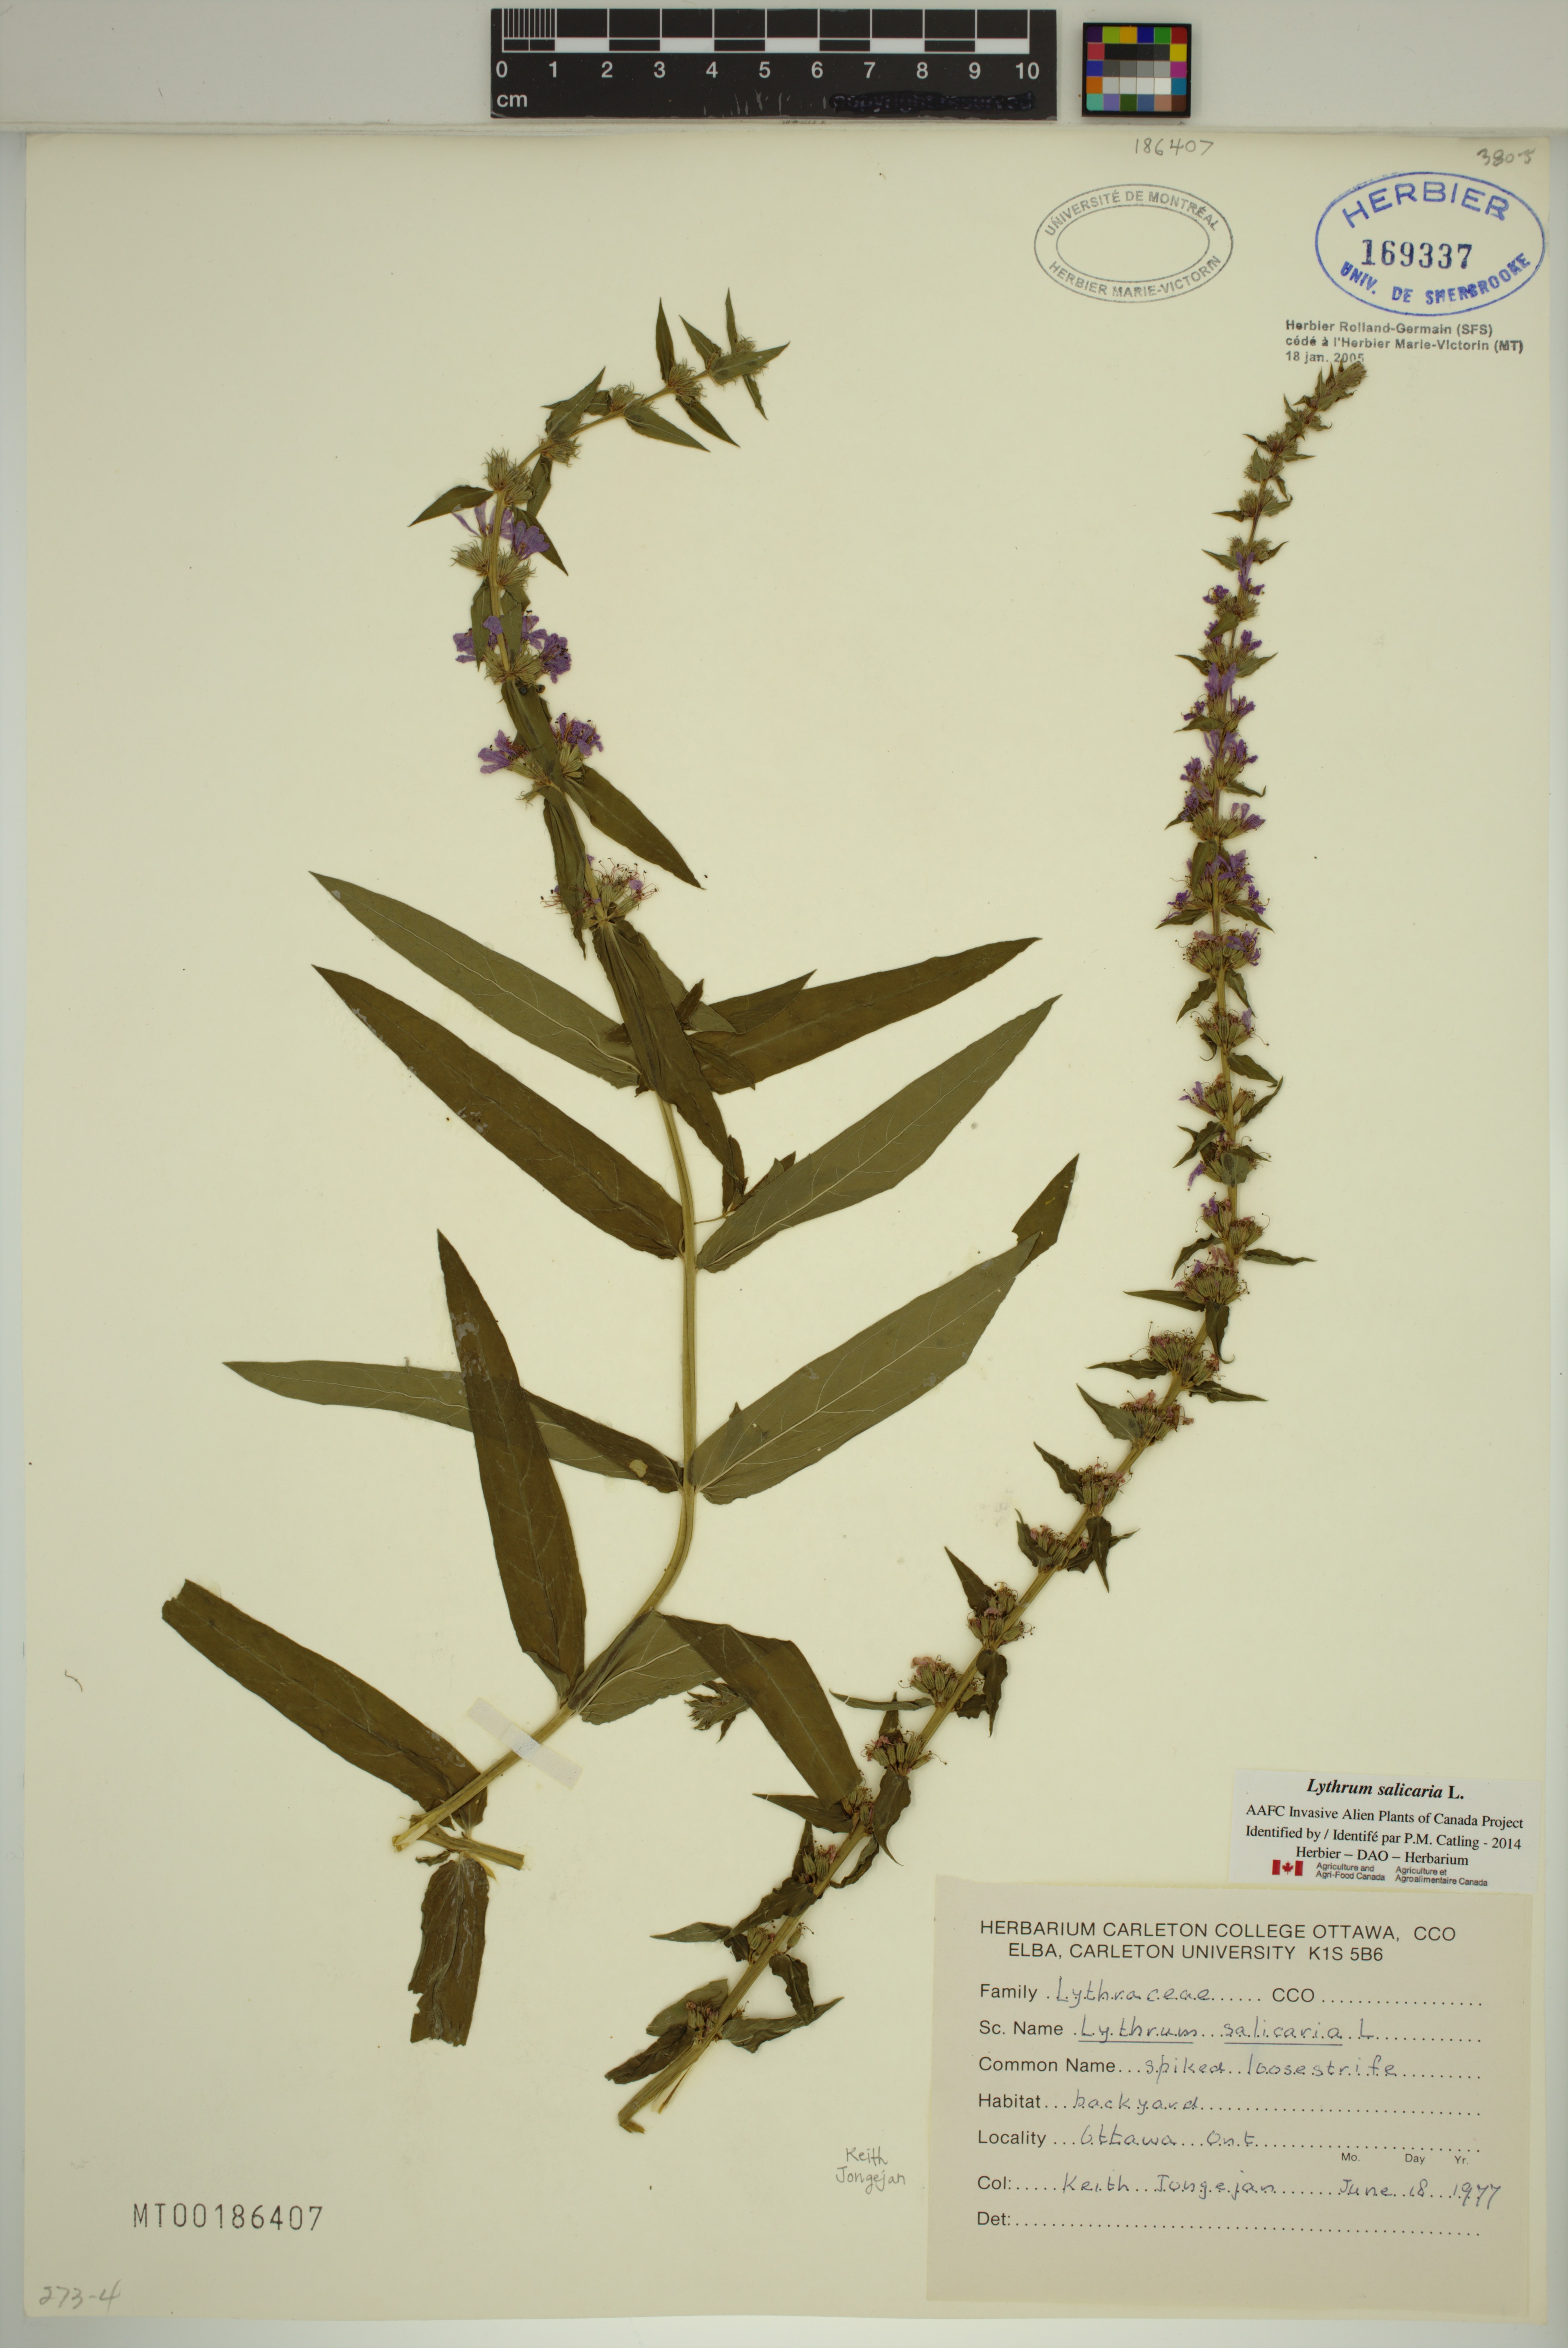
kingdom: Plantae
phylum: Tracheophyta
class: Magnoliopsida
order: Myrtales
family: Lythraceae
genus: Lythrum
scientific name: Lythrum salicaria
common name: Purple loosestrife
